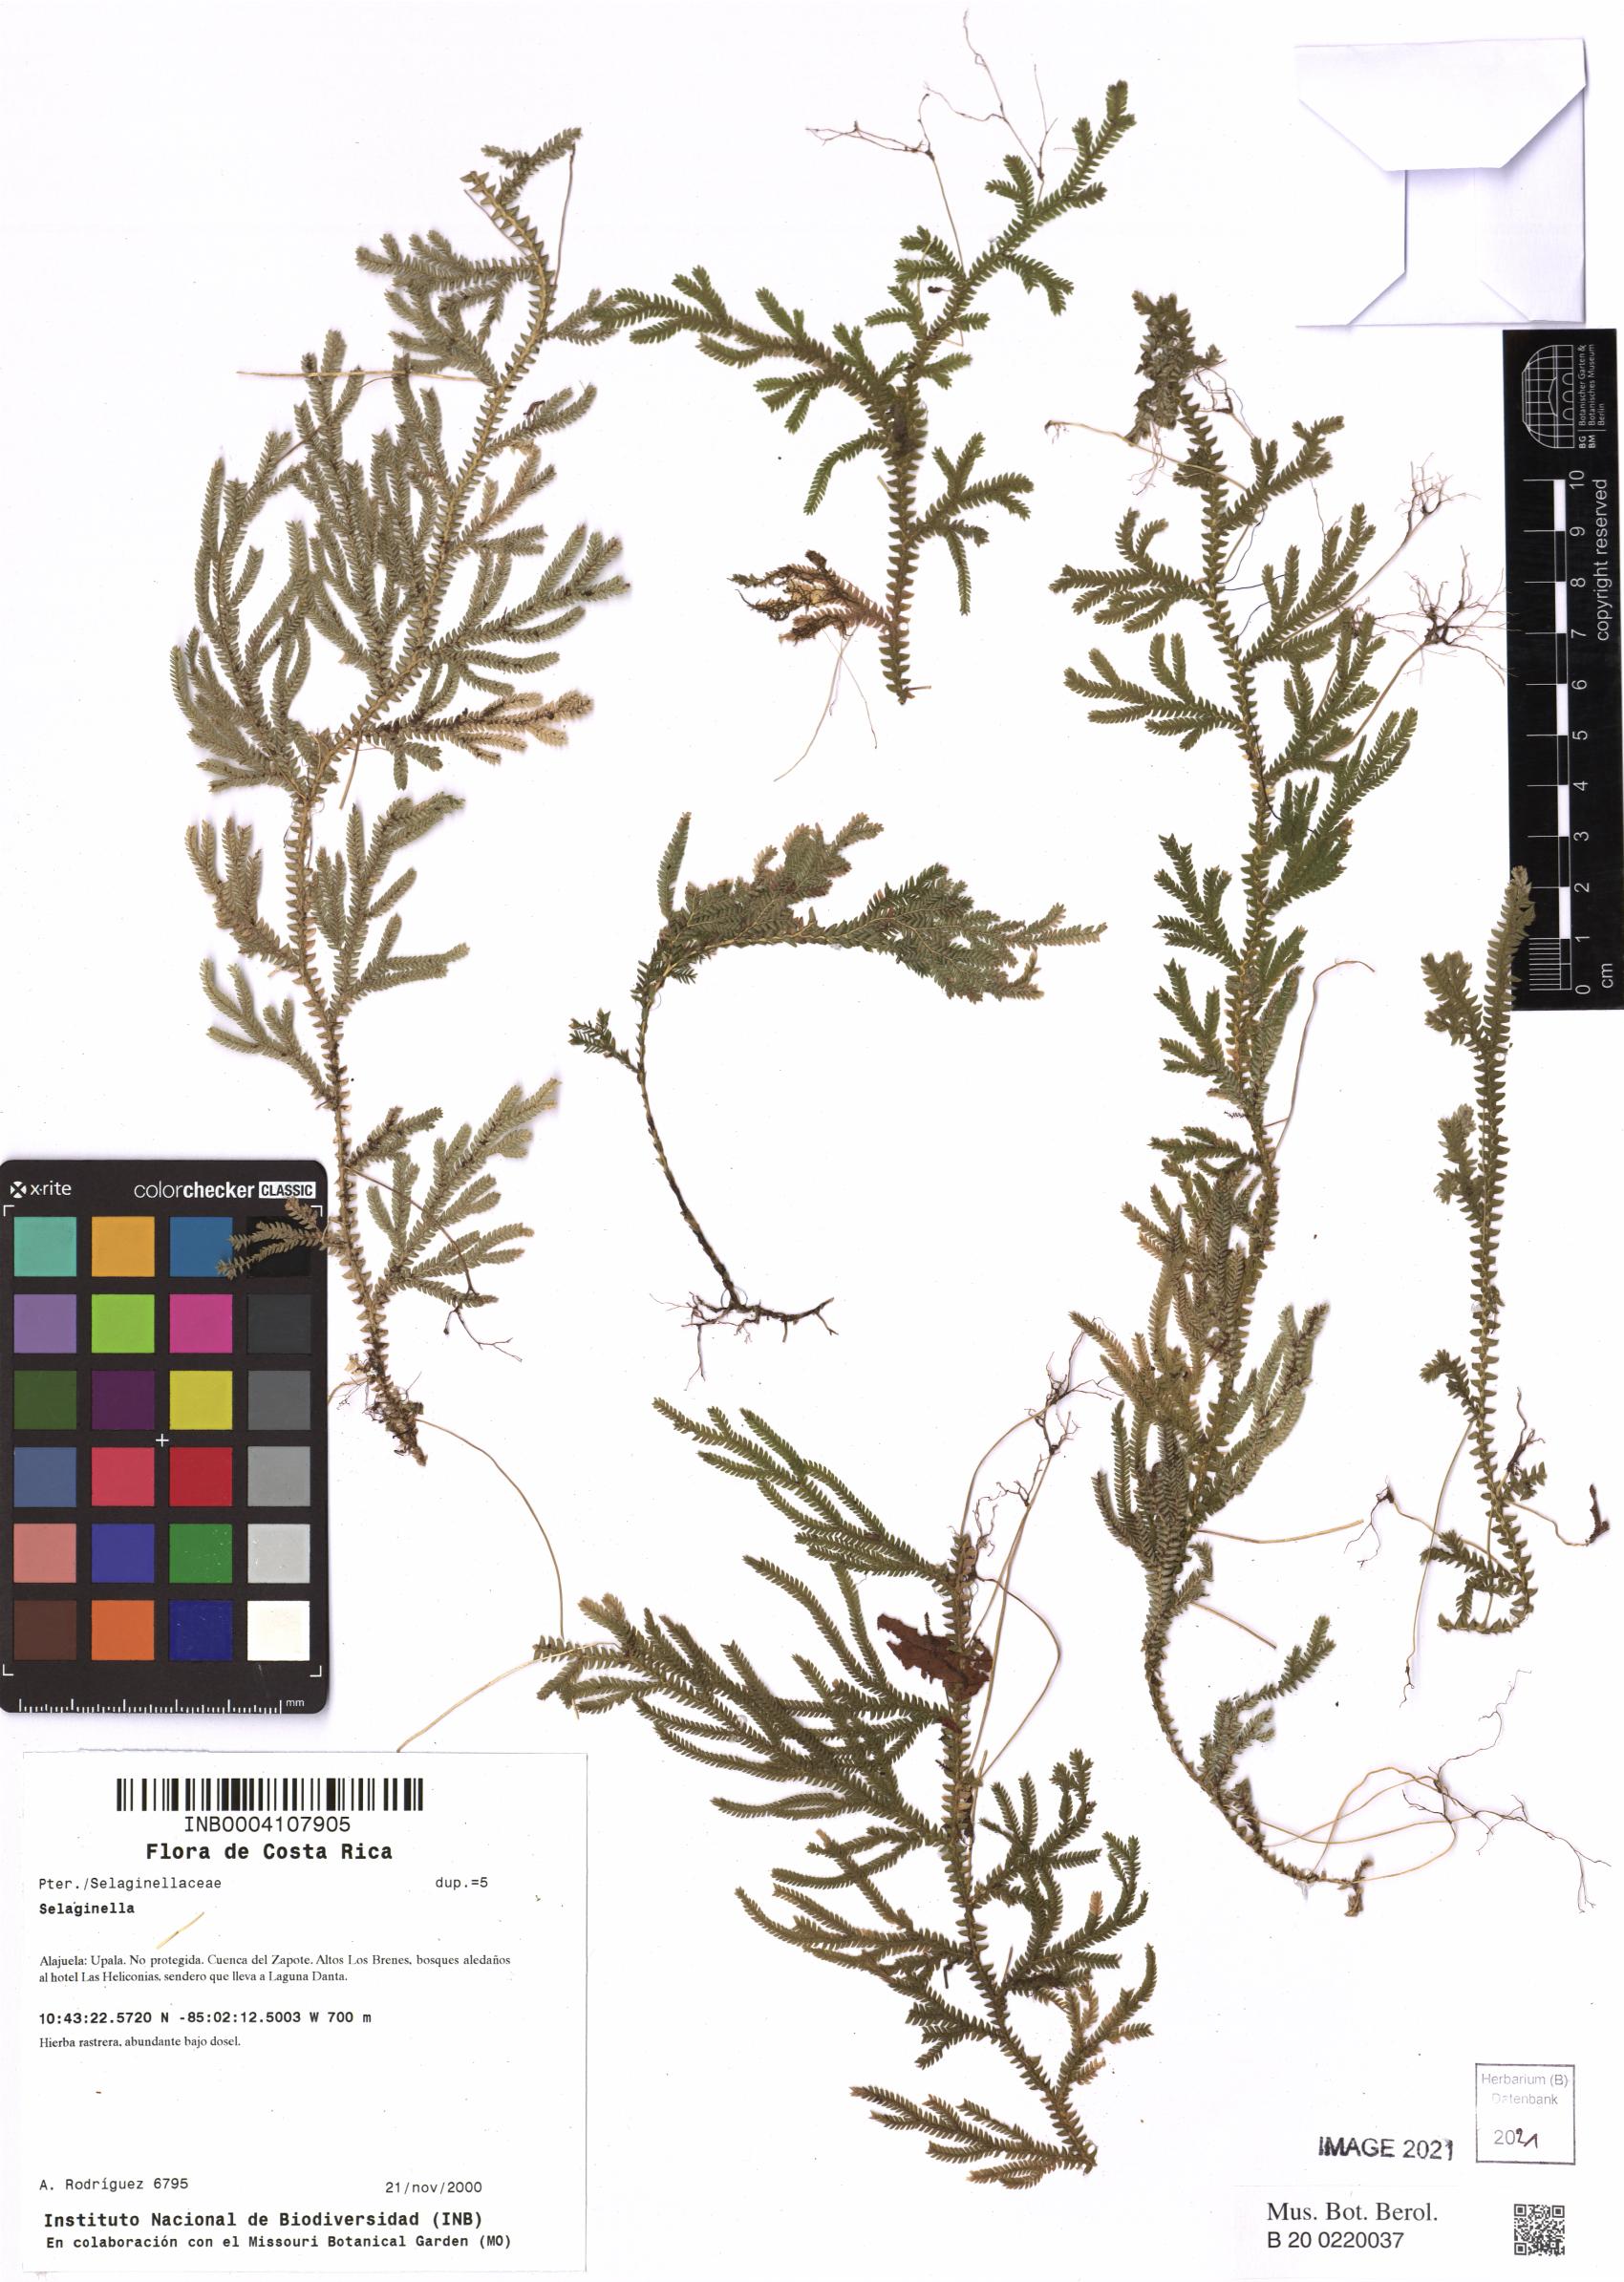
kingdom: Plantae
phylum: Tracheophyta
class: Lycopodiopsida
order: Selaginellales
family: Selaginellaceae
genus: Selaginella
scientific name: Selaginella
